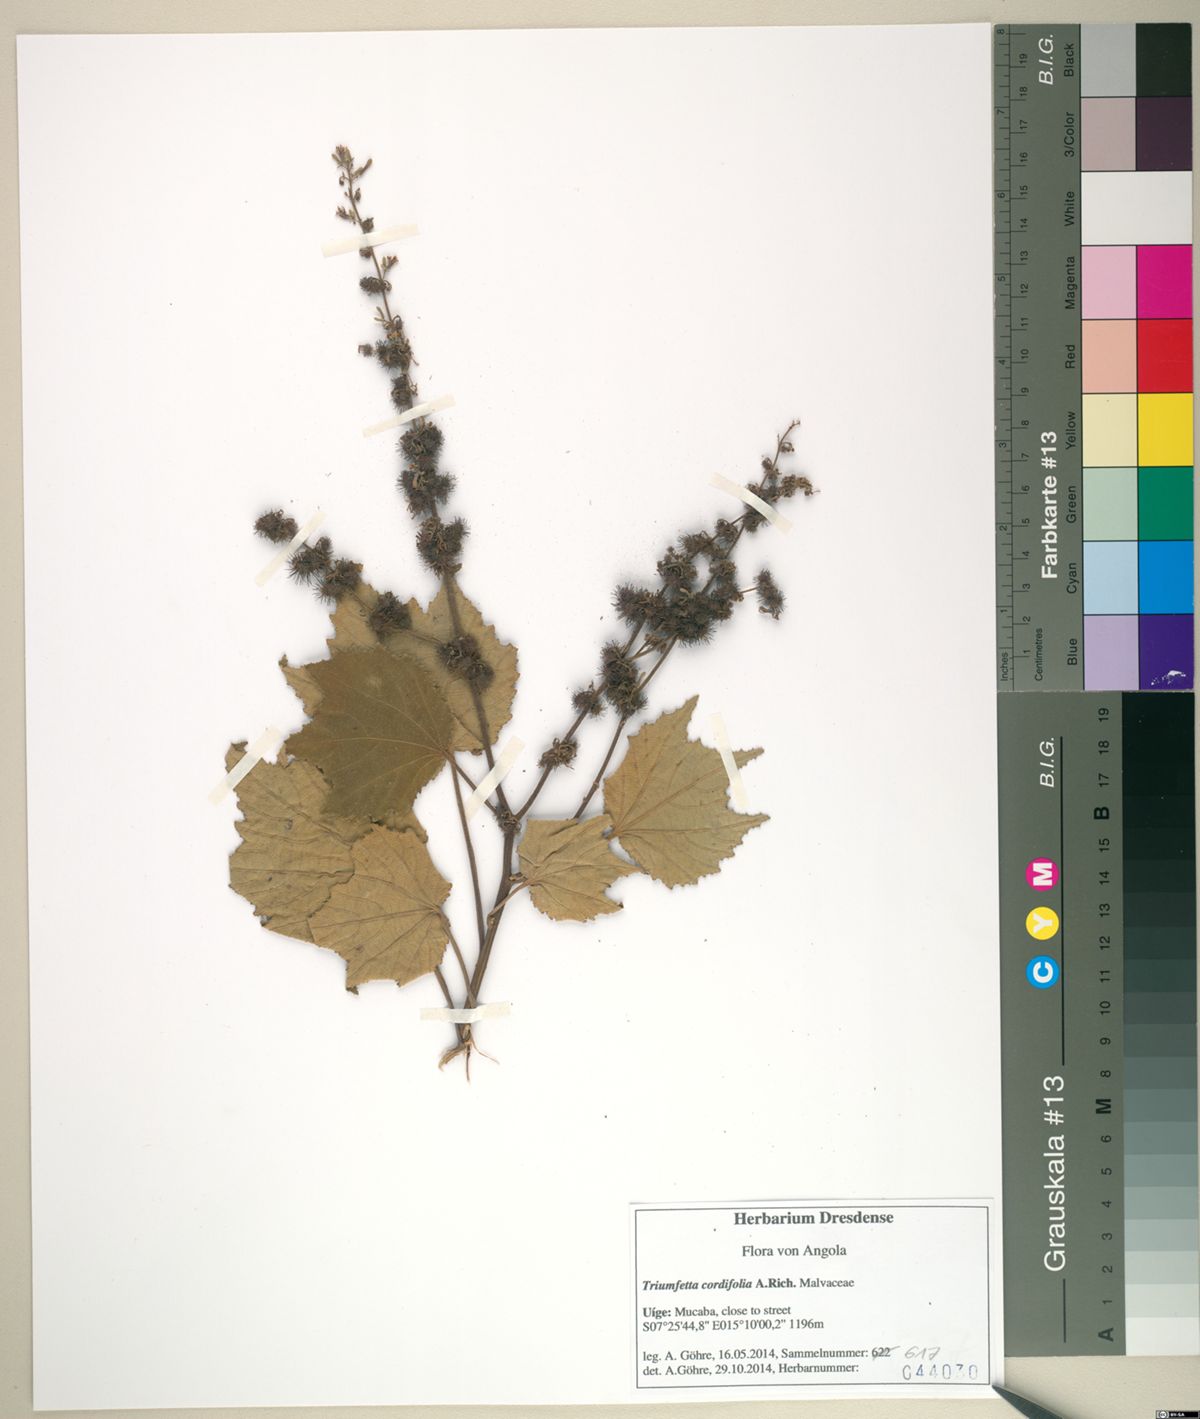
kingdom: Plantae
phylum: Tracheophyta
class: Magnoliopsida
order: Malvales
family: Malvaceae
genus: Triumfetta
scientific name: Triumfetta cordifolia
